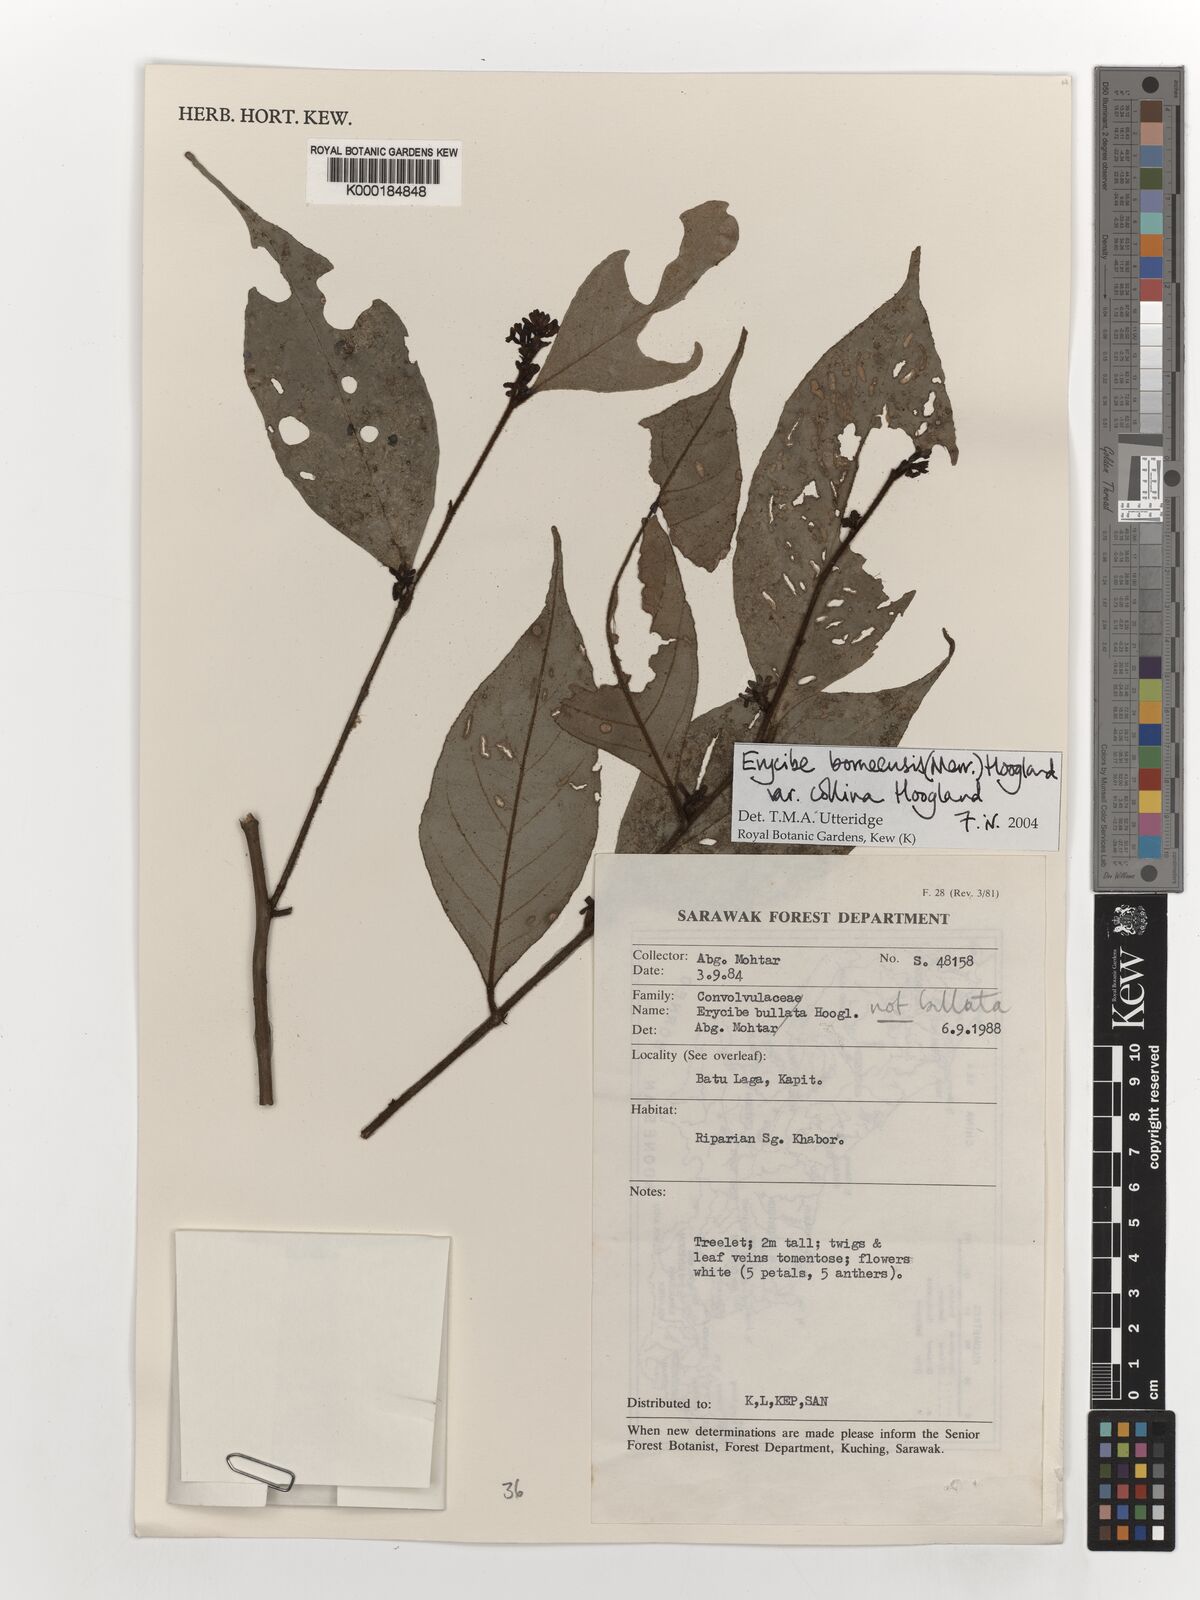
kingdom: Plantae
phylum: Tracheophyta
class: Magnoliopsida
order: Solanales
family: Convolvulaceae
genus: Erycibe
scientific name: Erycibe borneensis
